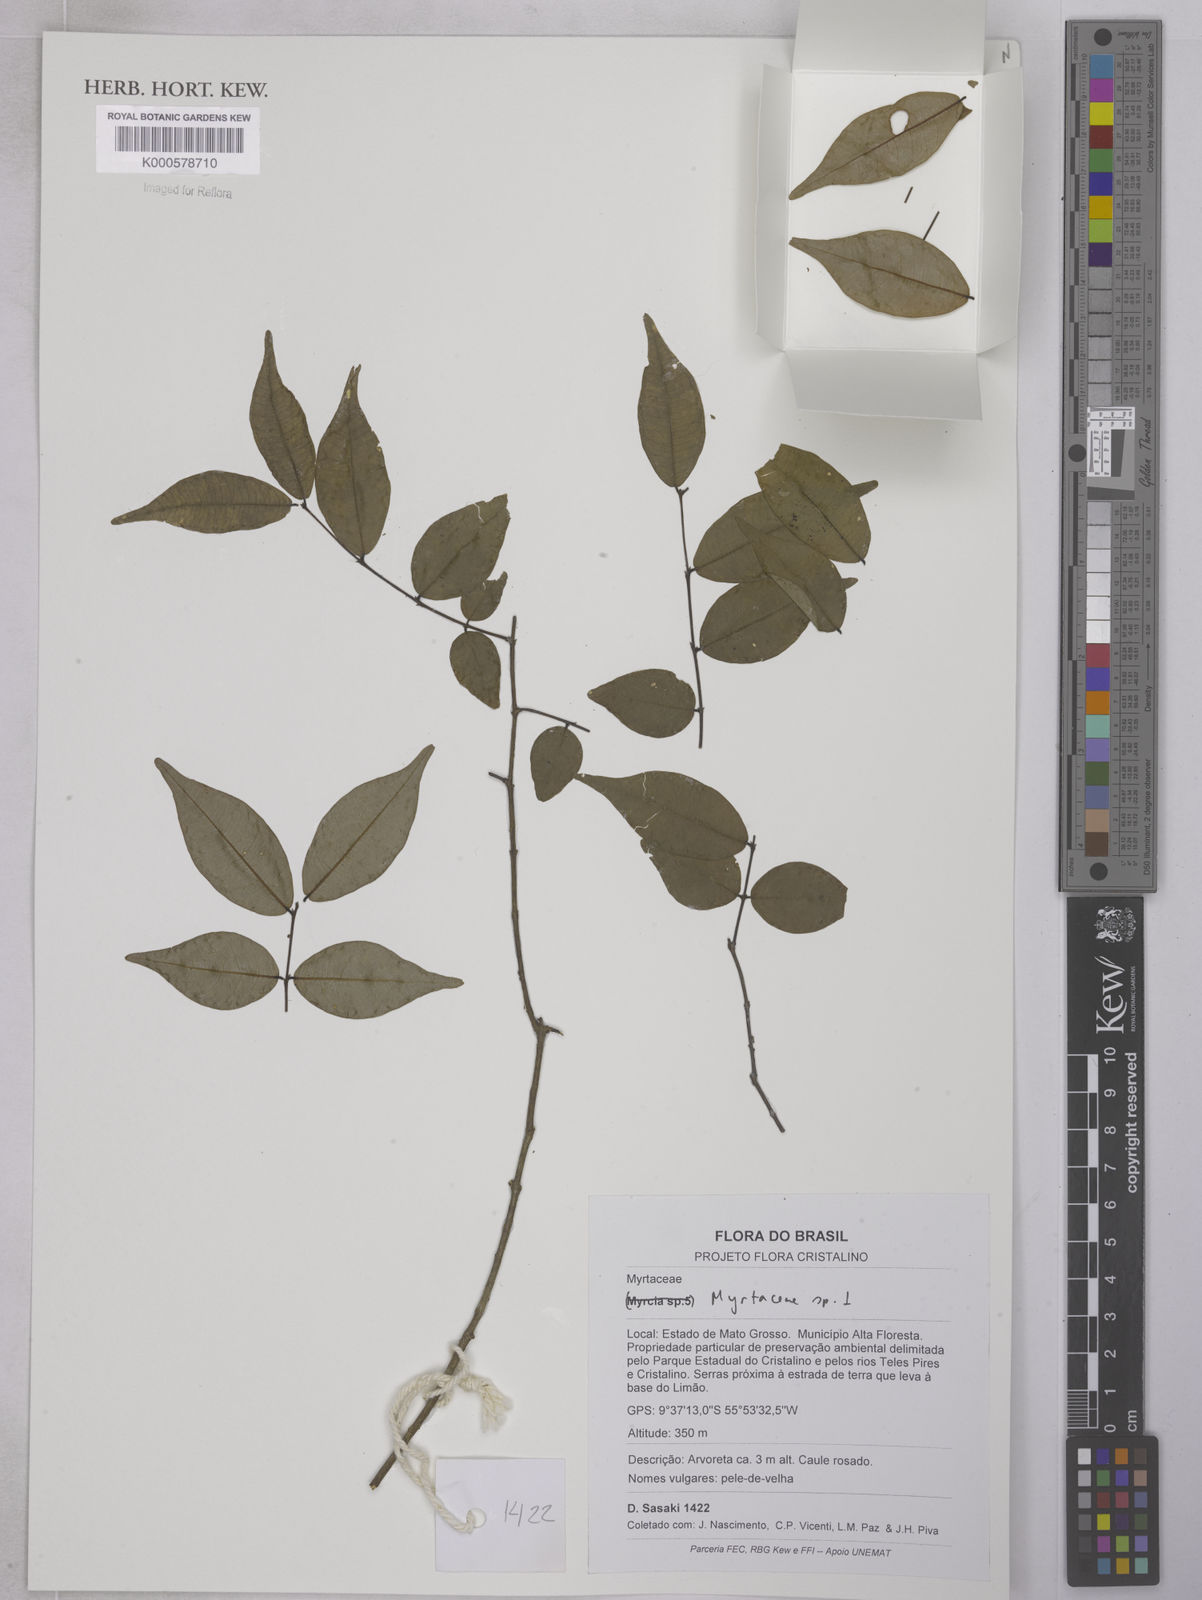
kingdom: Plantae
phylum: Tracheophyta
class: Magnoliopsida
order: Myrtales
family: Myrtaceae
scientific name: Myrtaceae
